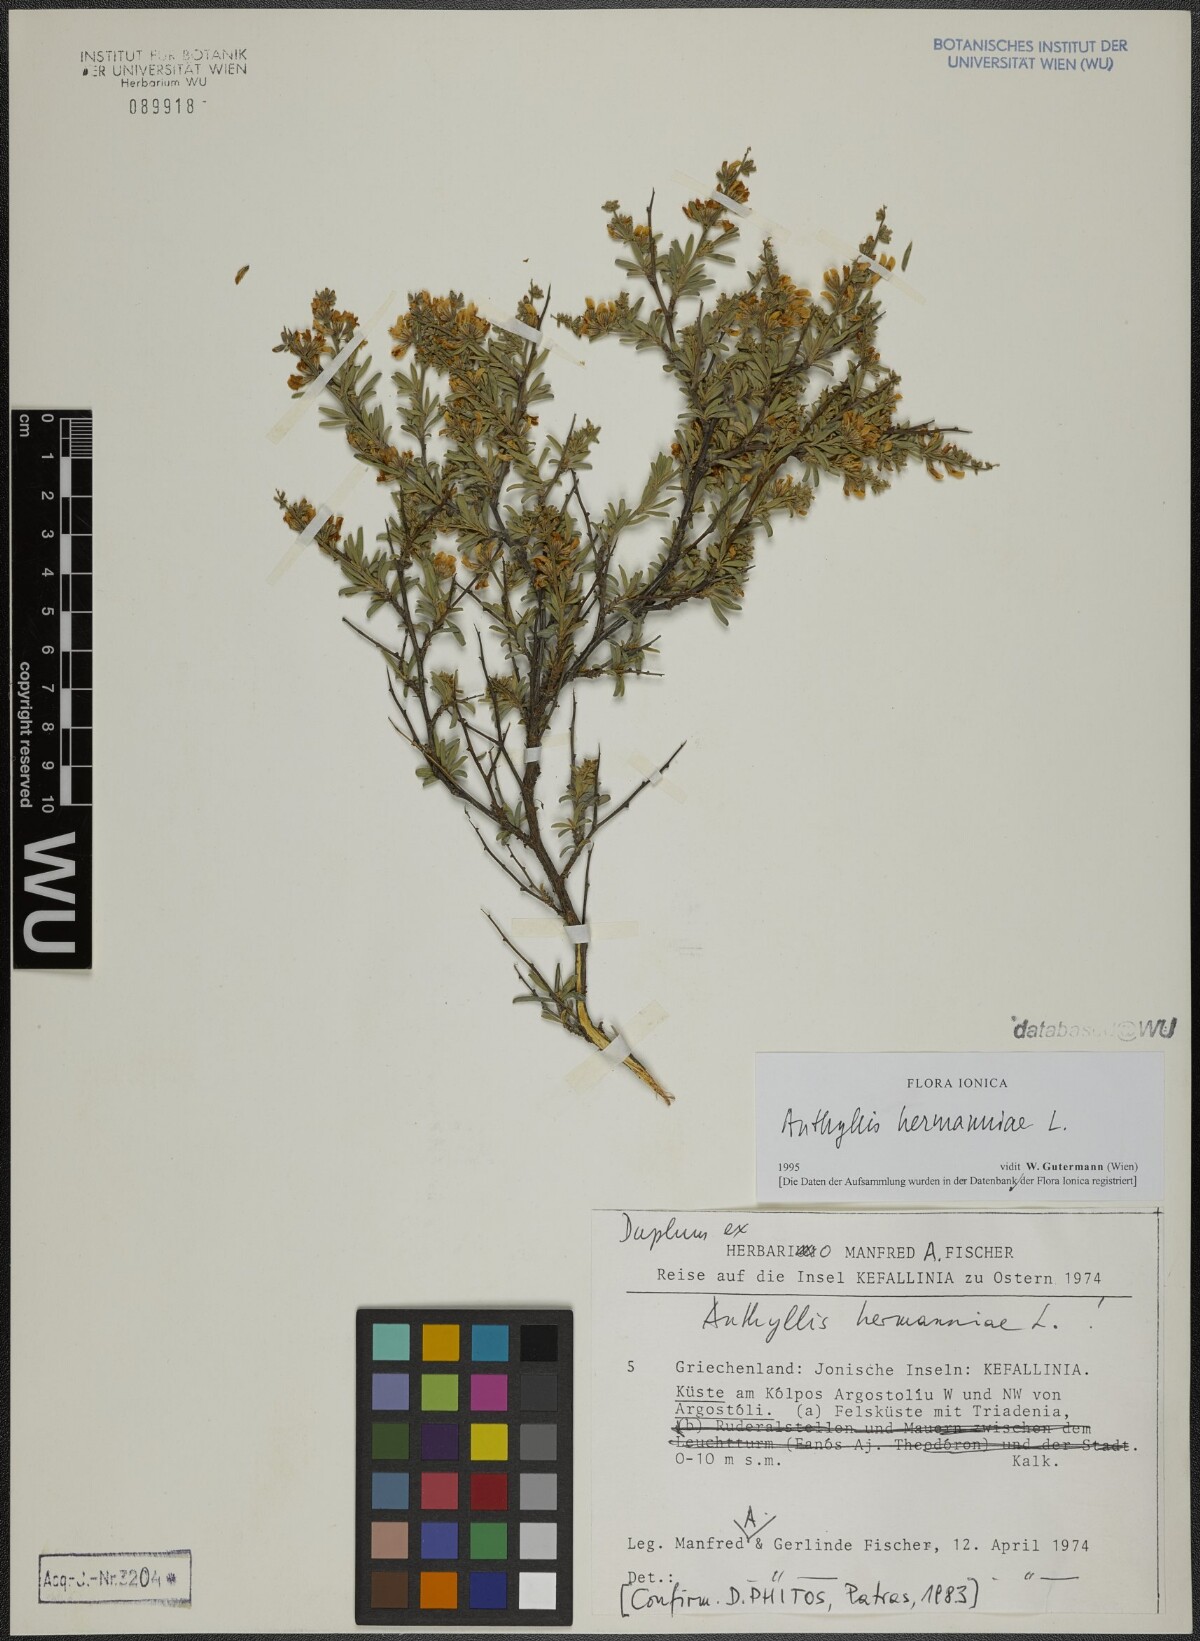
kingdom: Plantae
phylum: Tracheophyta
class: Magnoliopsida
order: Fabales
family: Fabaceae
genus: Anthyllis
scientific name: Anthyllis hermanniae
